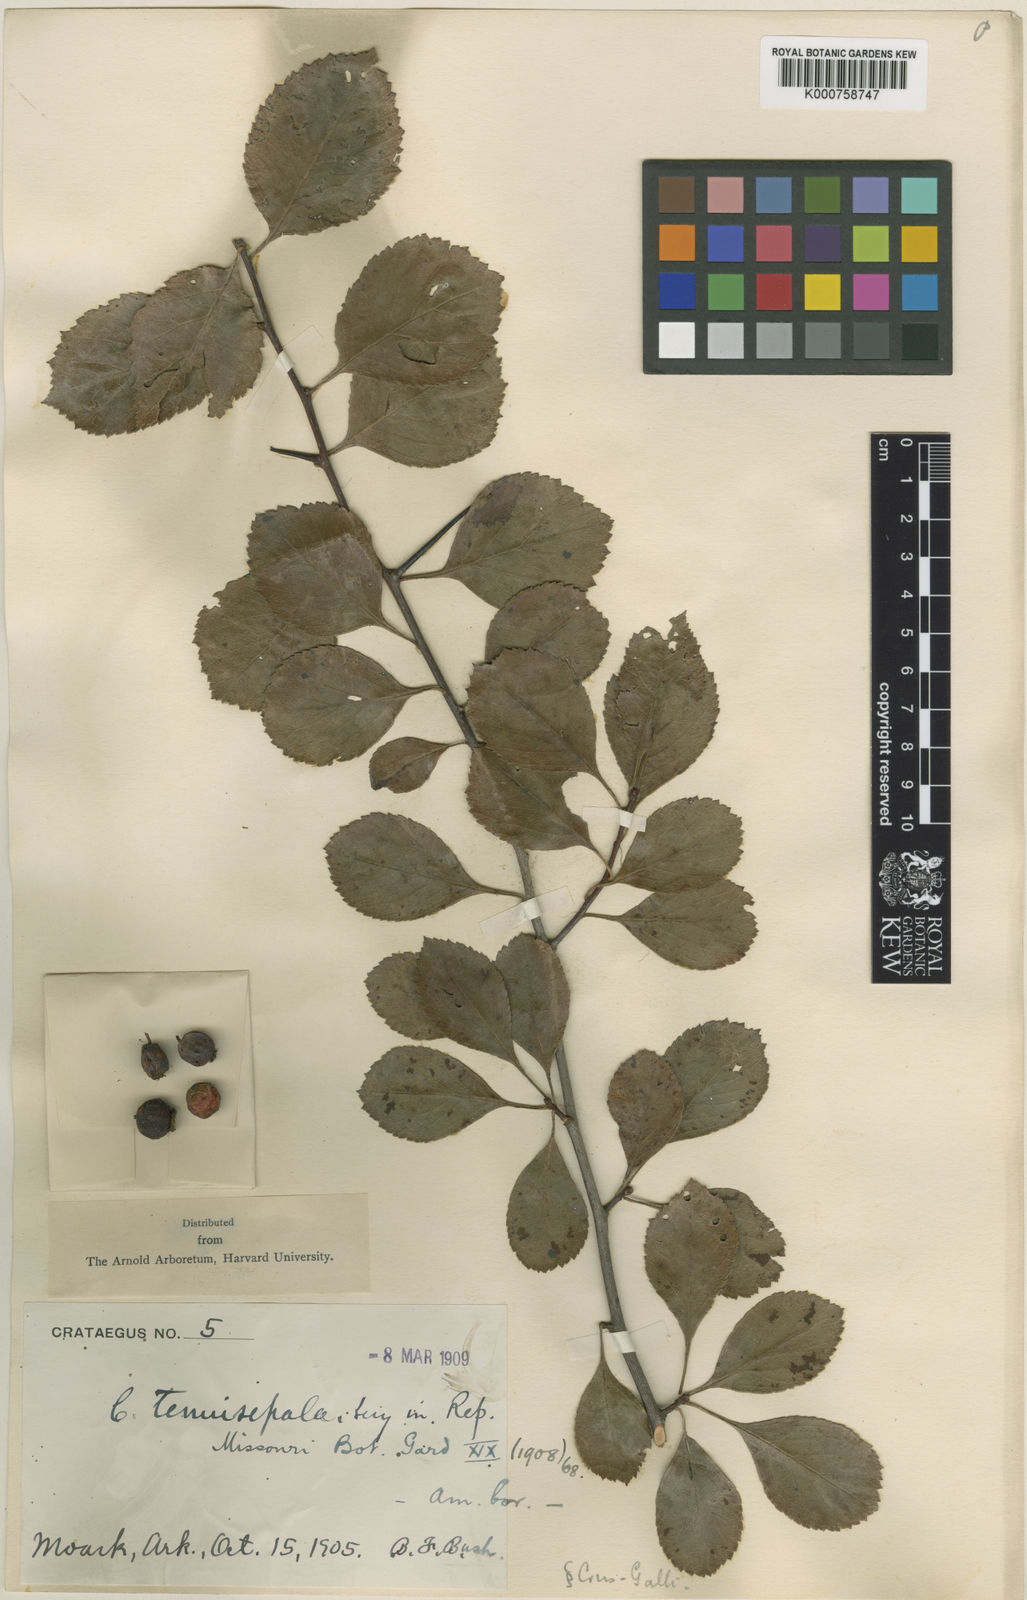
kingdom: Plantae
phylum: Tracheophyta
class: Magnoliopsida
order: Rosales
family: Rosaceae
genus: Crataegus
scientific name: Crataegus tenuisepala
